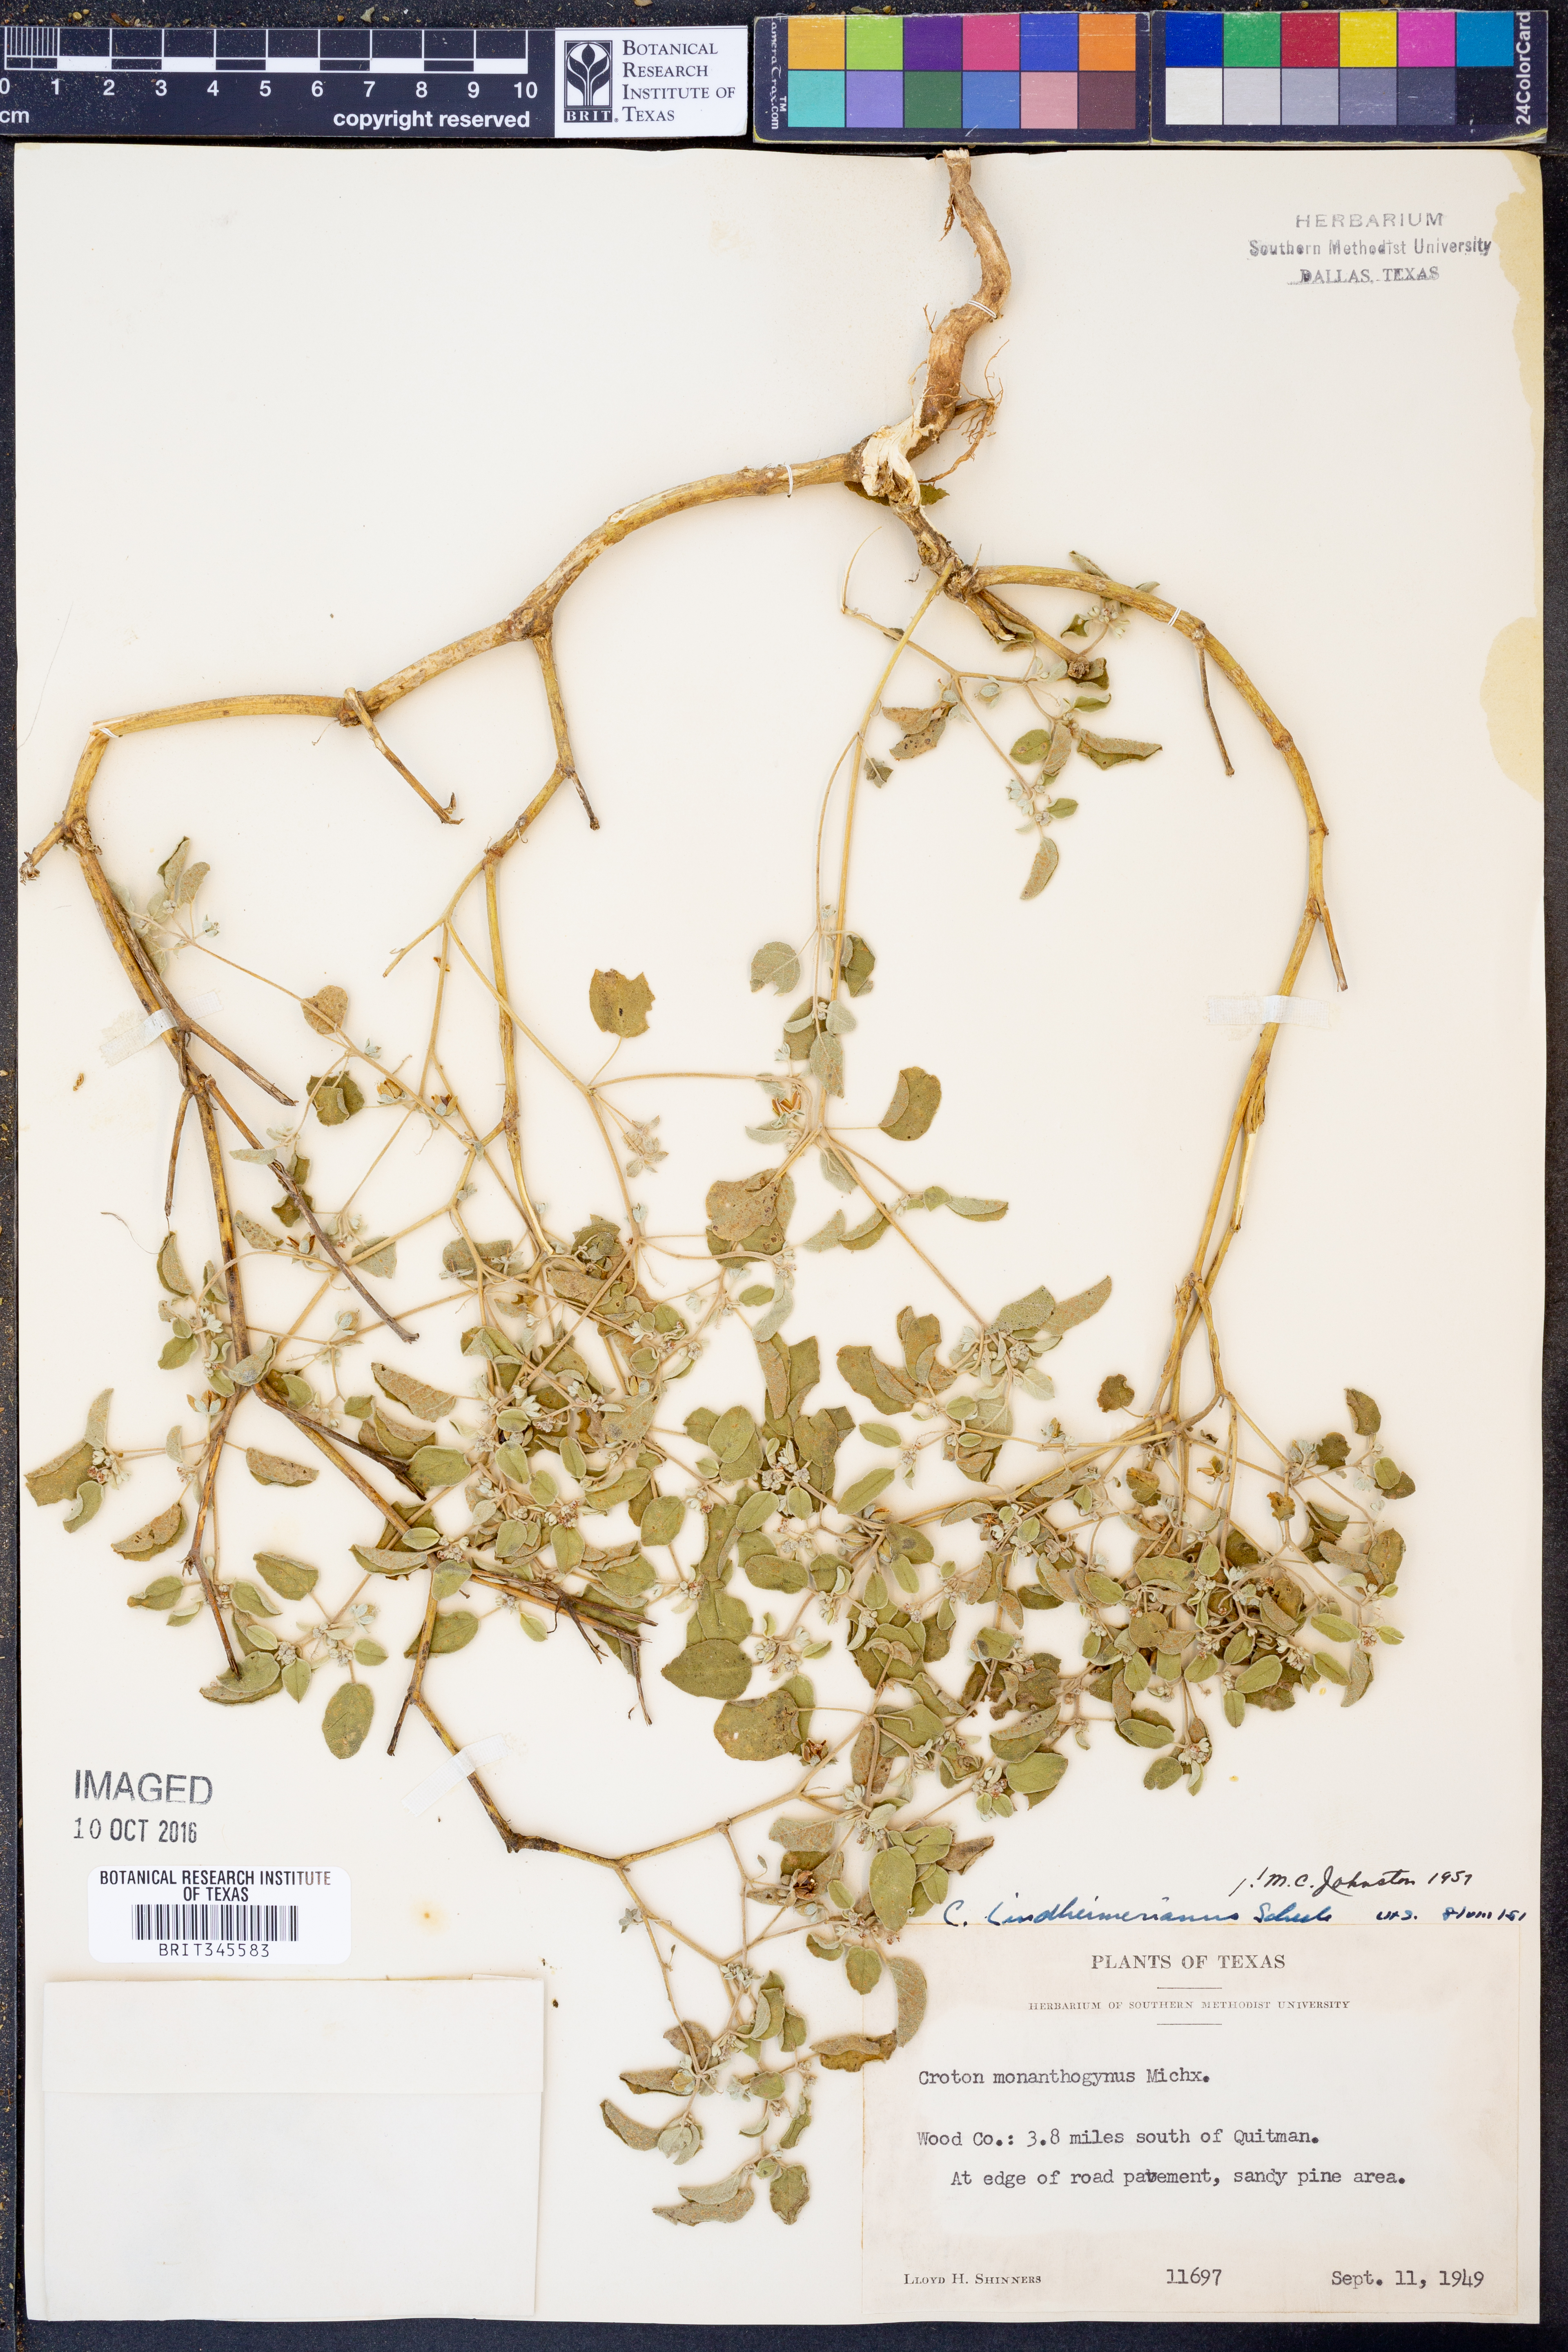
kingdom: Plantae
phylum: Tracheophyta
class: Magnoliopsida
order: Malpighiales
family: Euphorbiaceae
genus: Croton
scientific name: Croton lindheimerianus
